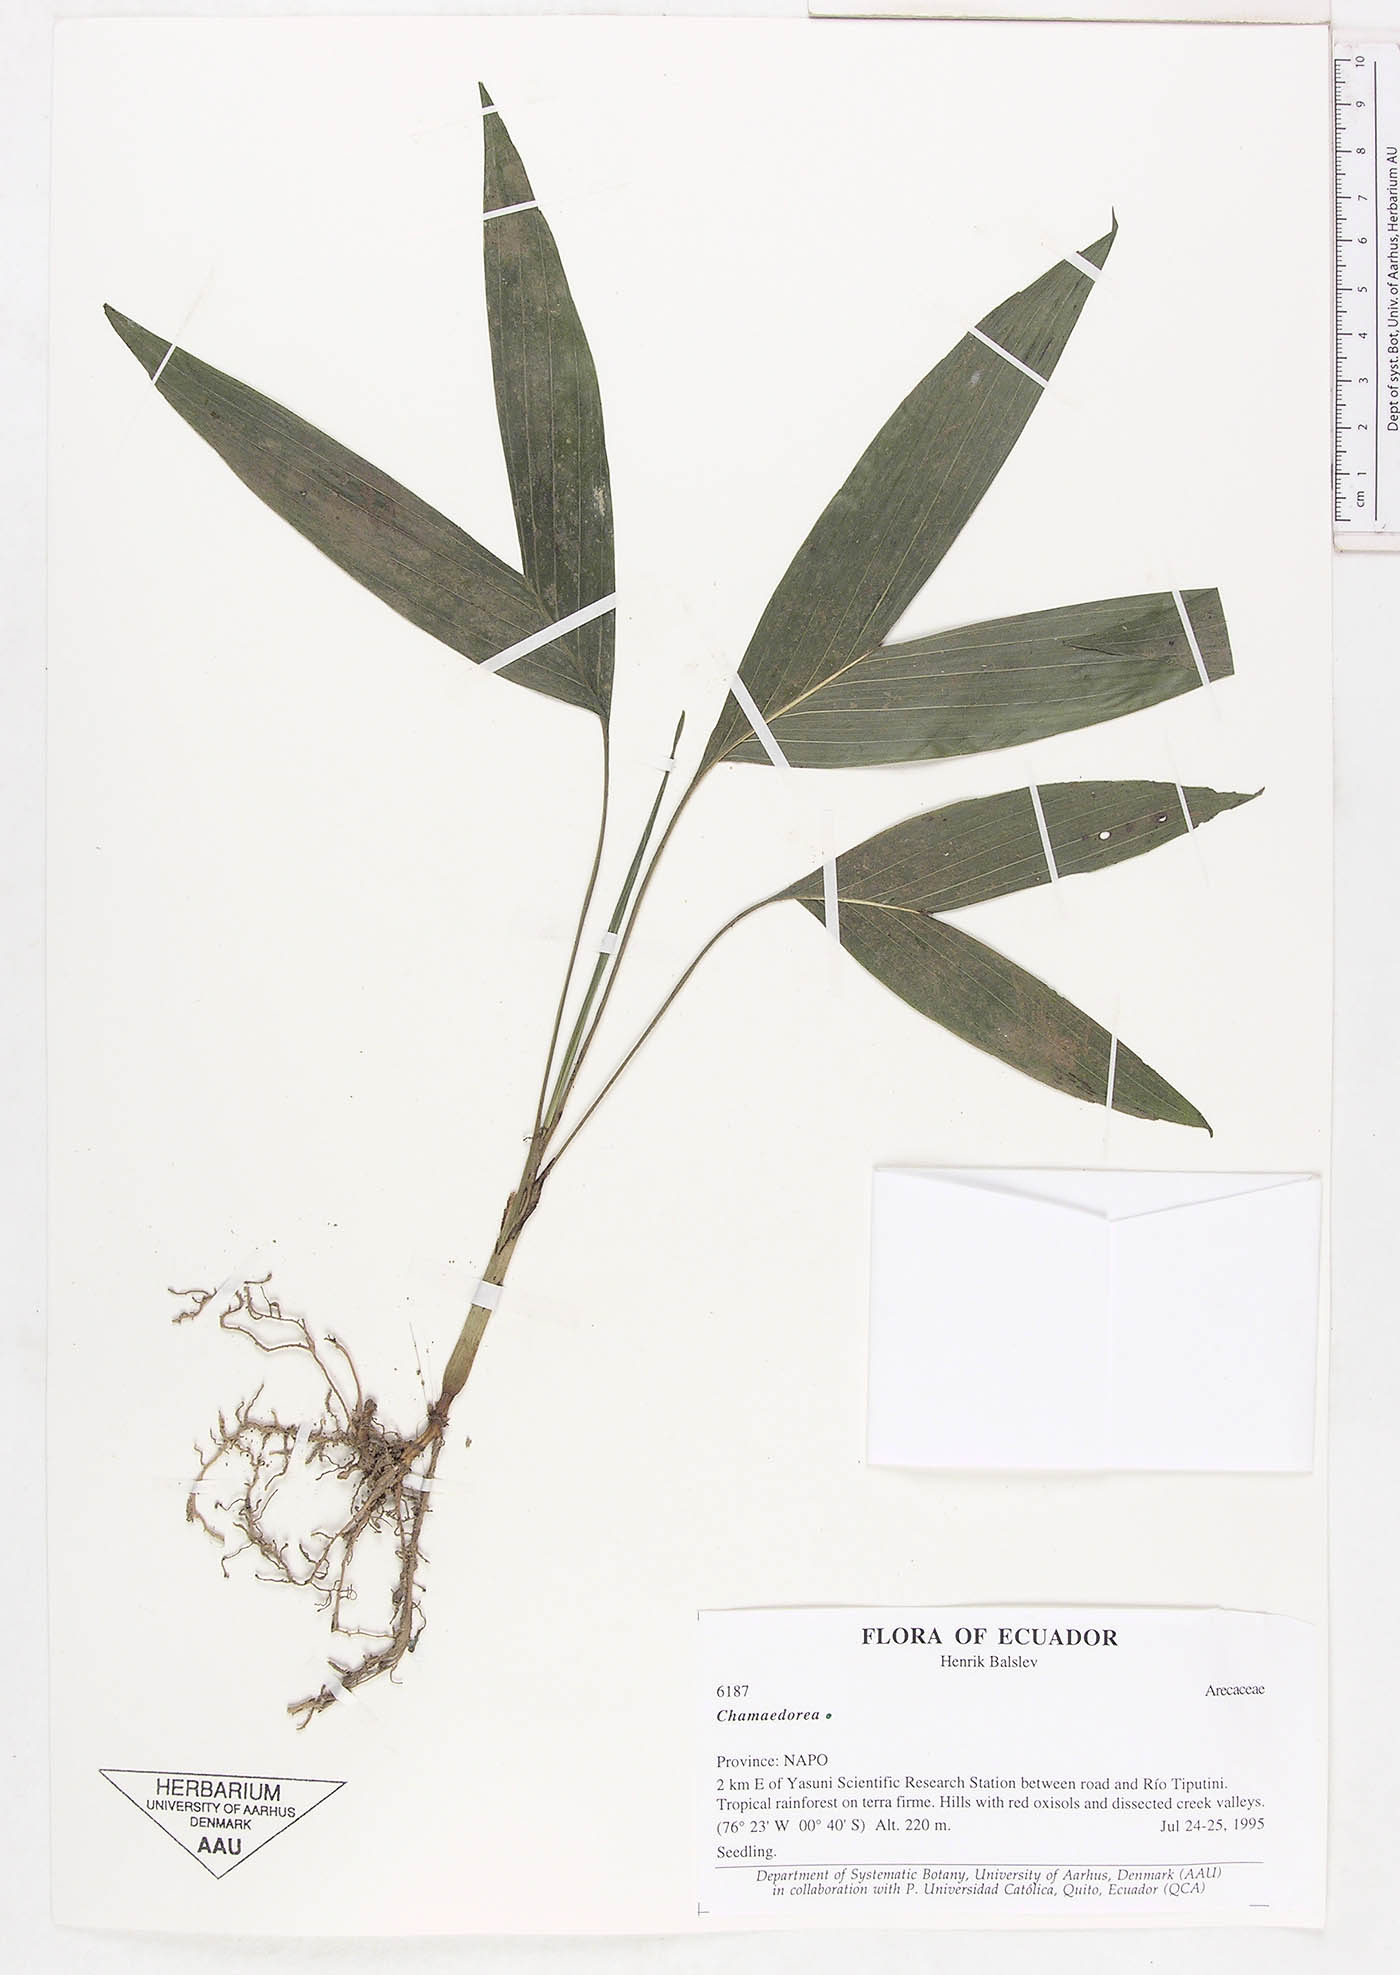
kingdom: Plantae
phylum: Tracheophyta
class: Liliopsida
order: Arecales
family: Arecaceae
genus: Chamaedorea
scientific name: Chamaedorea
